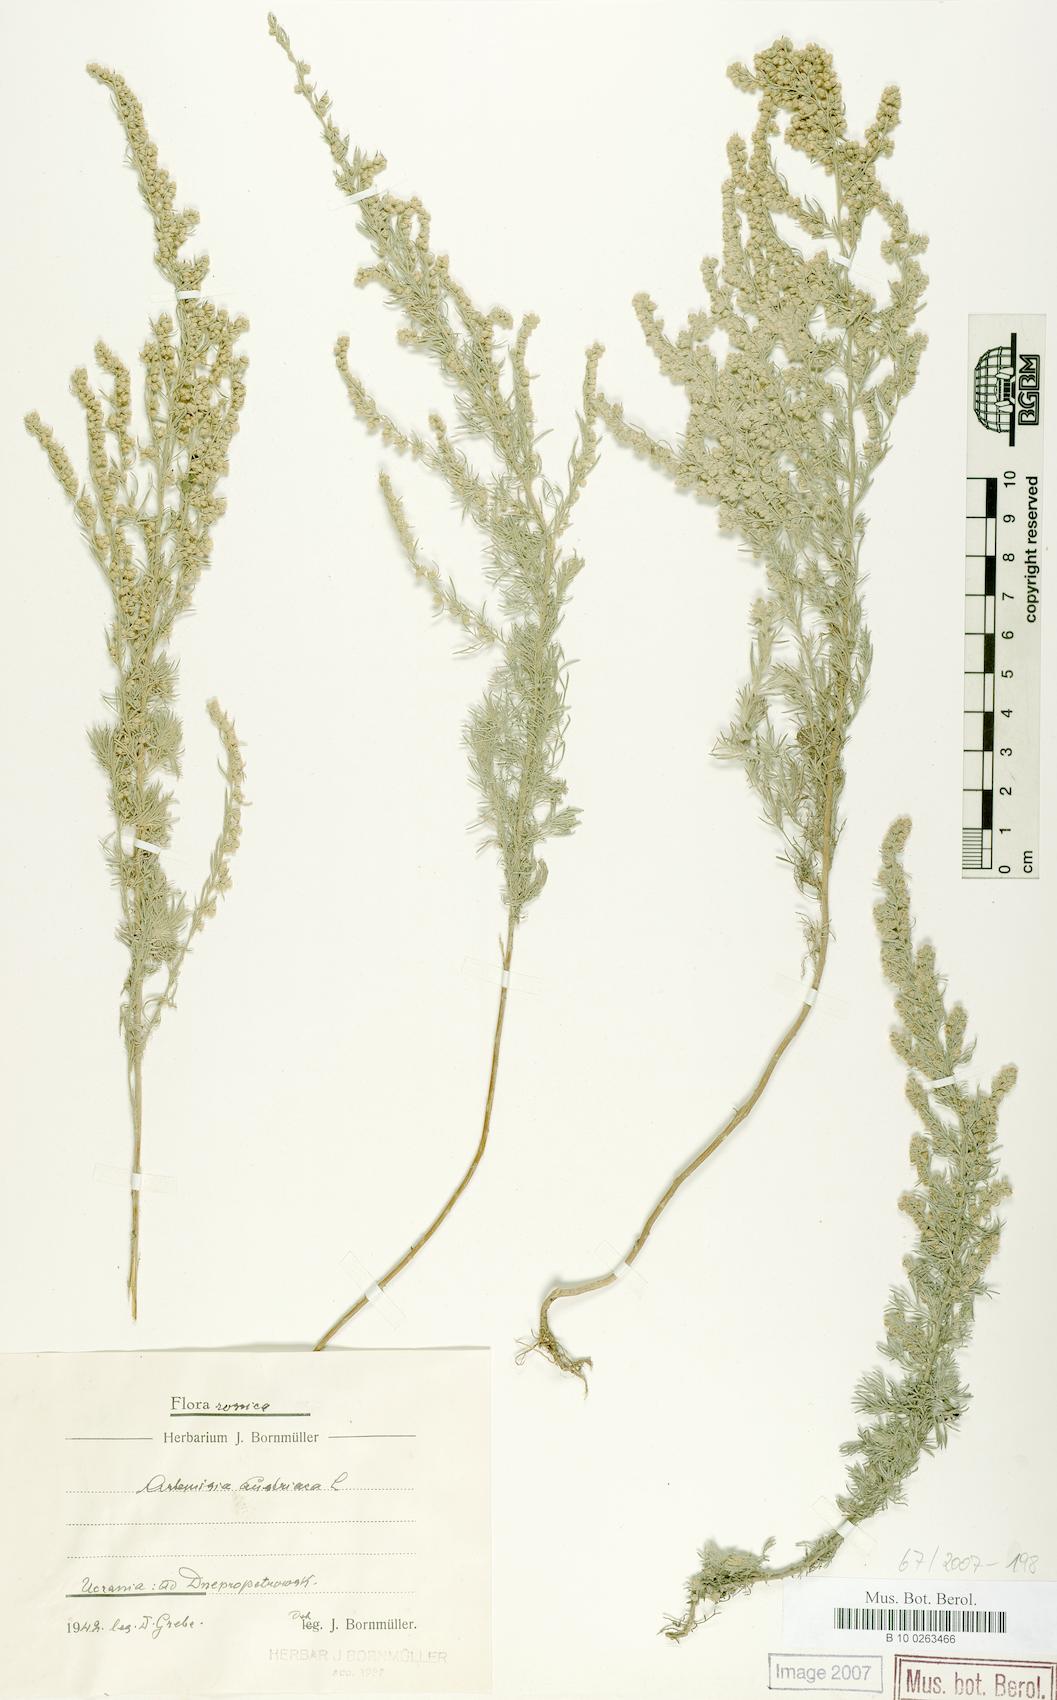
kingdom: Plantae
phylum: Tracheophyta
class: Magnoliopsida
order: Asterales
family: Asteraceae
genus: Artemisia
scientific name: Artemisia austriaca
